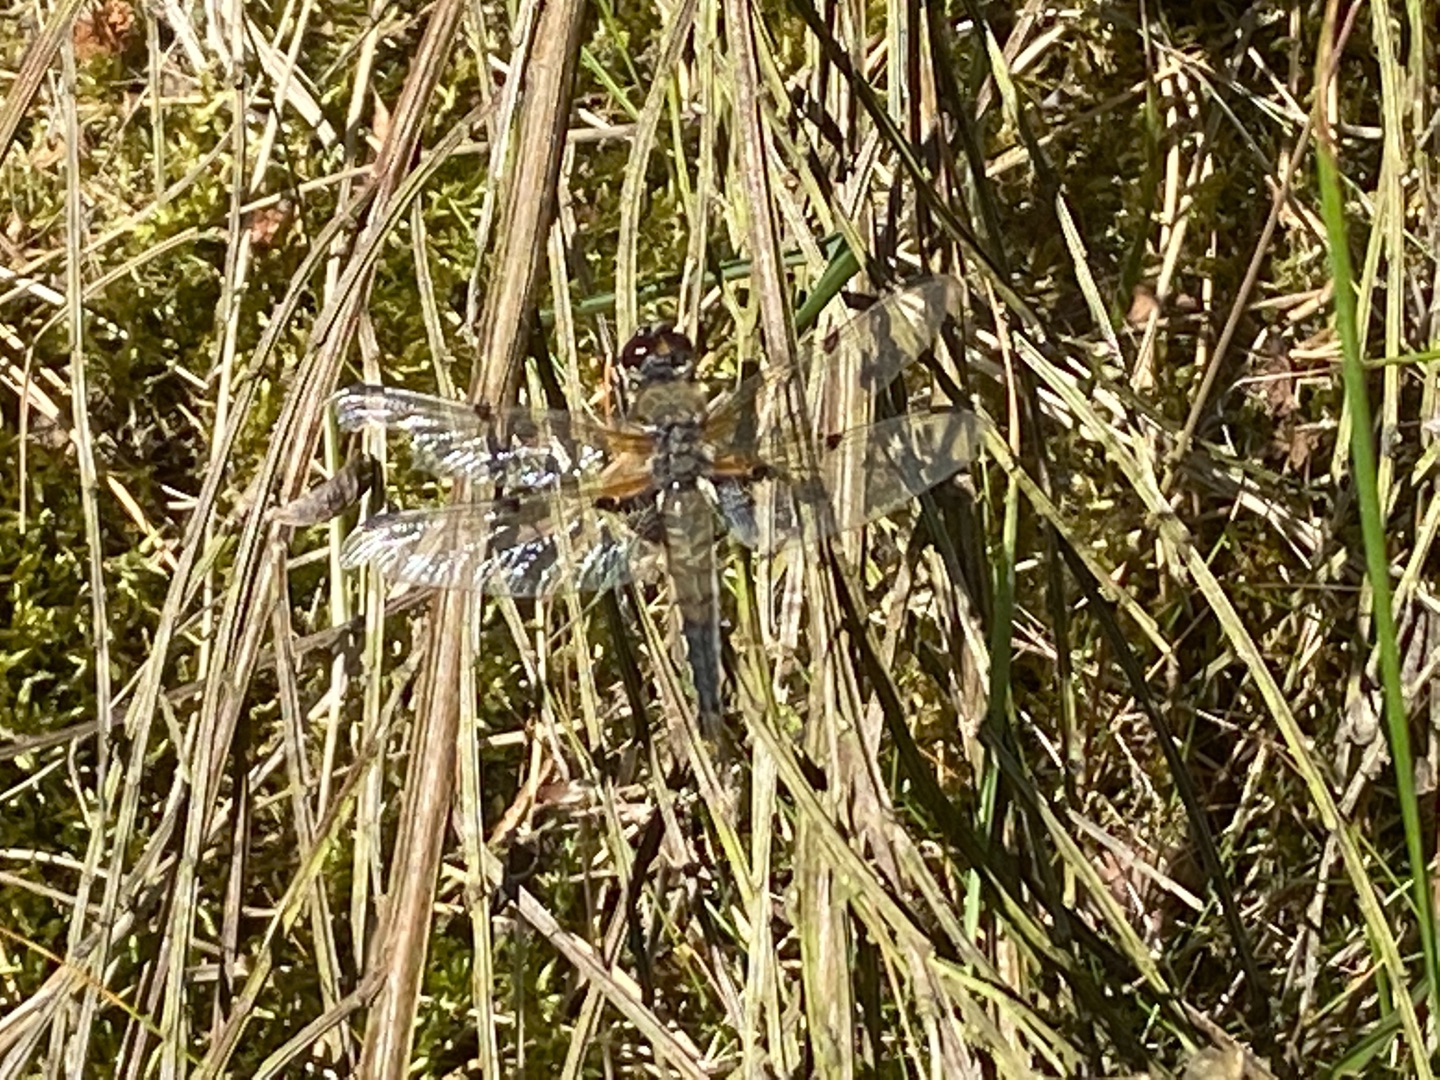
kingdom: Animalia
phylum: Arthropoda
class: Insecta
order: Odonata
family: Libellulidae
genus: Libellula
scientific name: Libellula quadrimaculata
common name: Fireplettet libel
